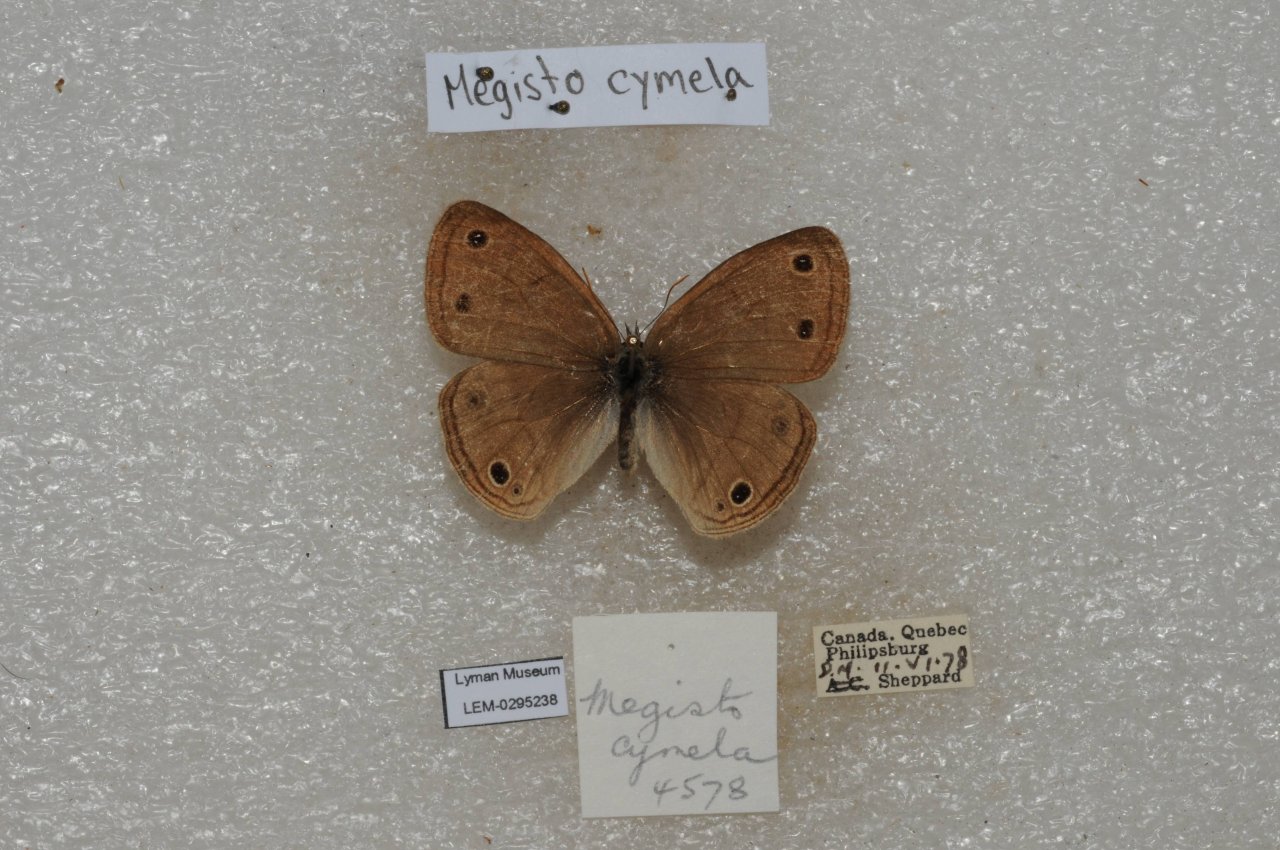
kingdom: Animalia
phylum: Arthropoda
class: Insecta
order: Lepidoptera
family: Nymphalidae
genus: Euptychia
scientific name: Euptychia cymela
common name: Little Wood Satyr
